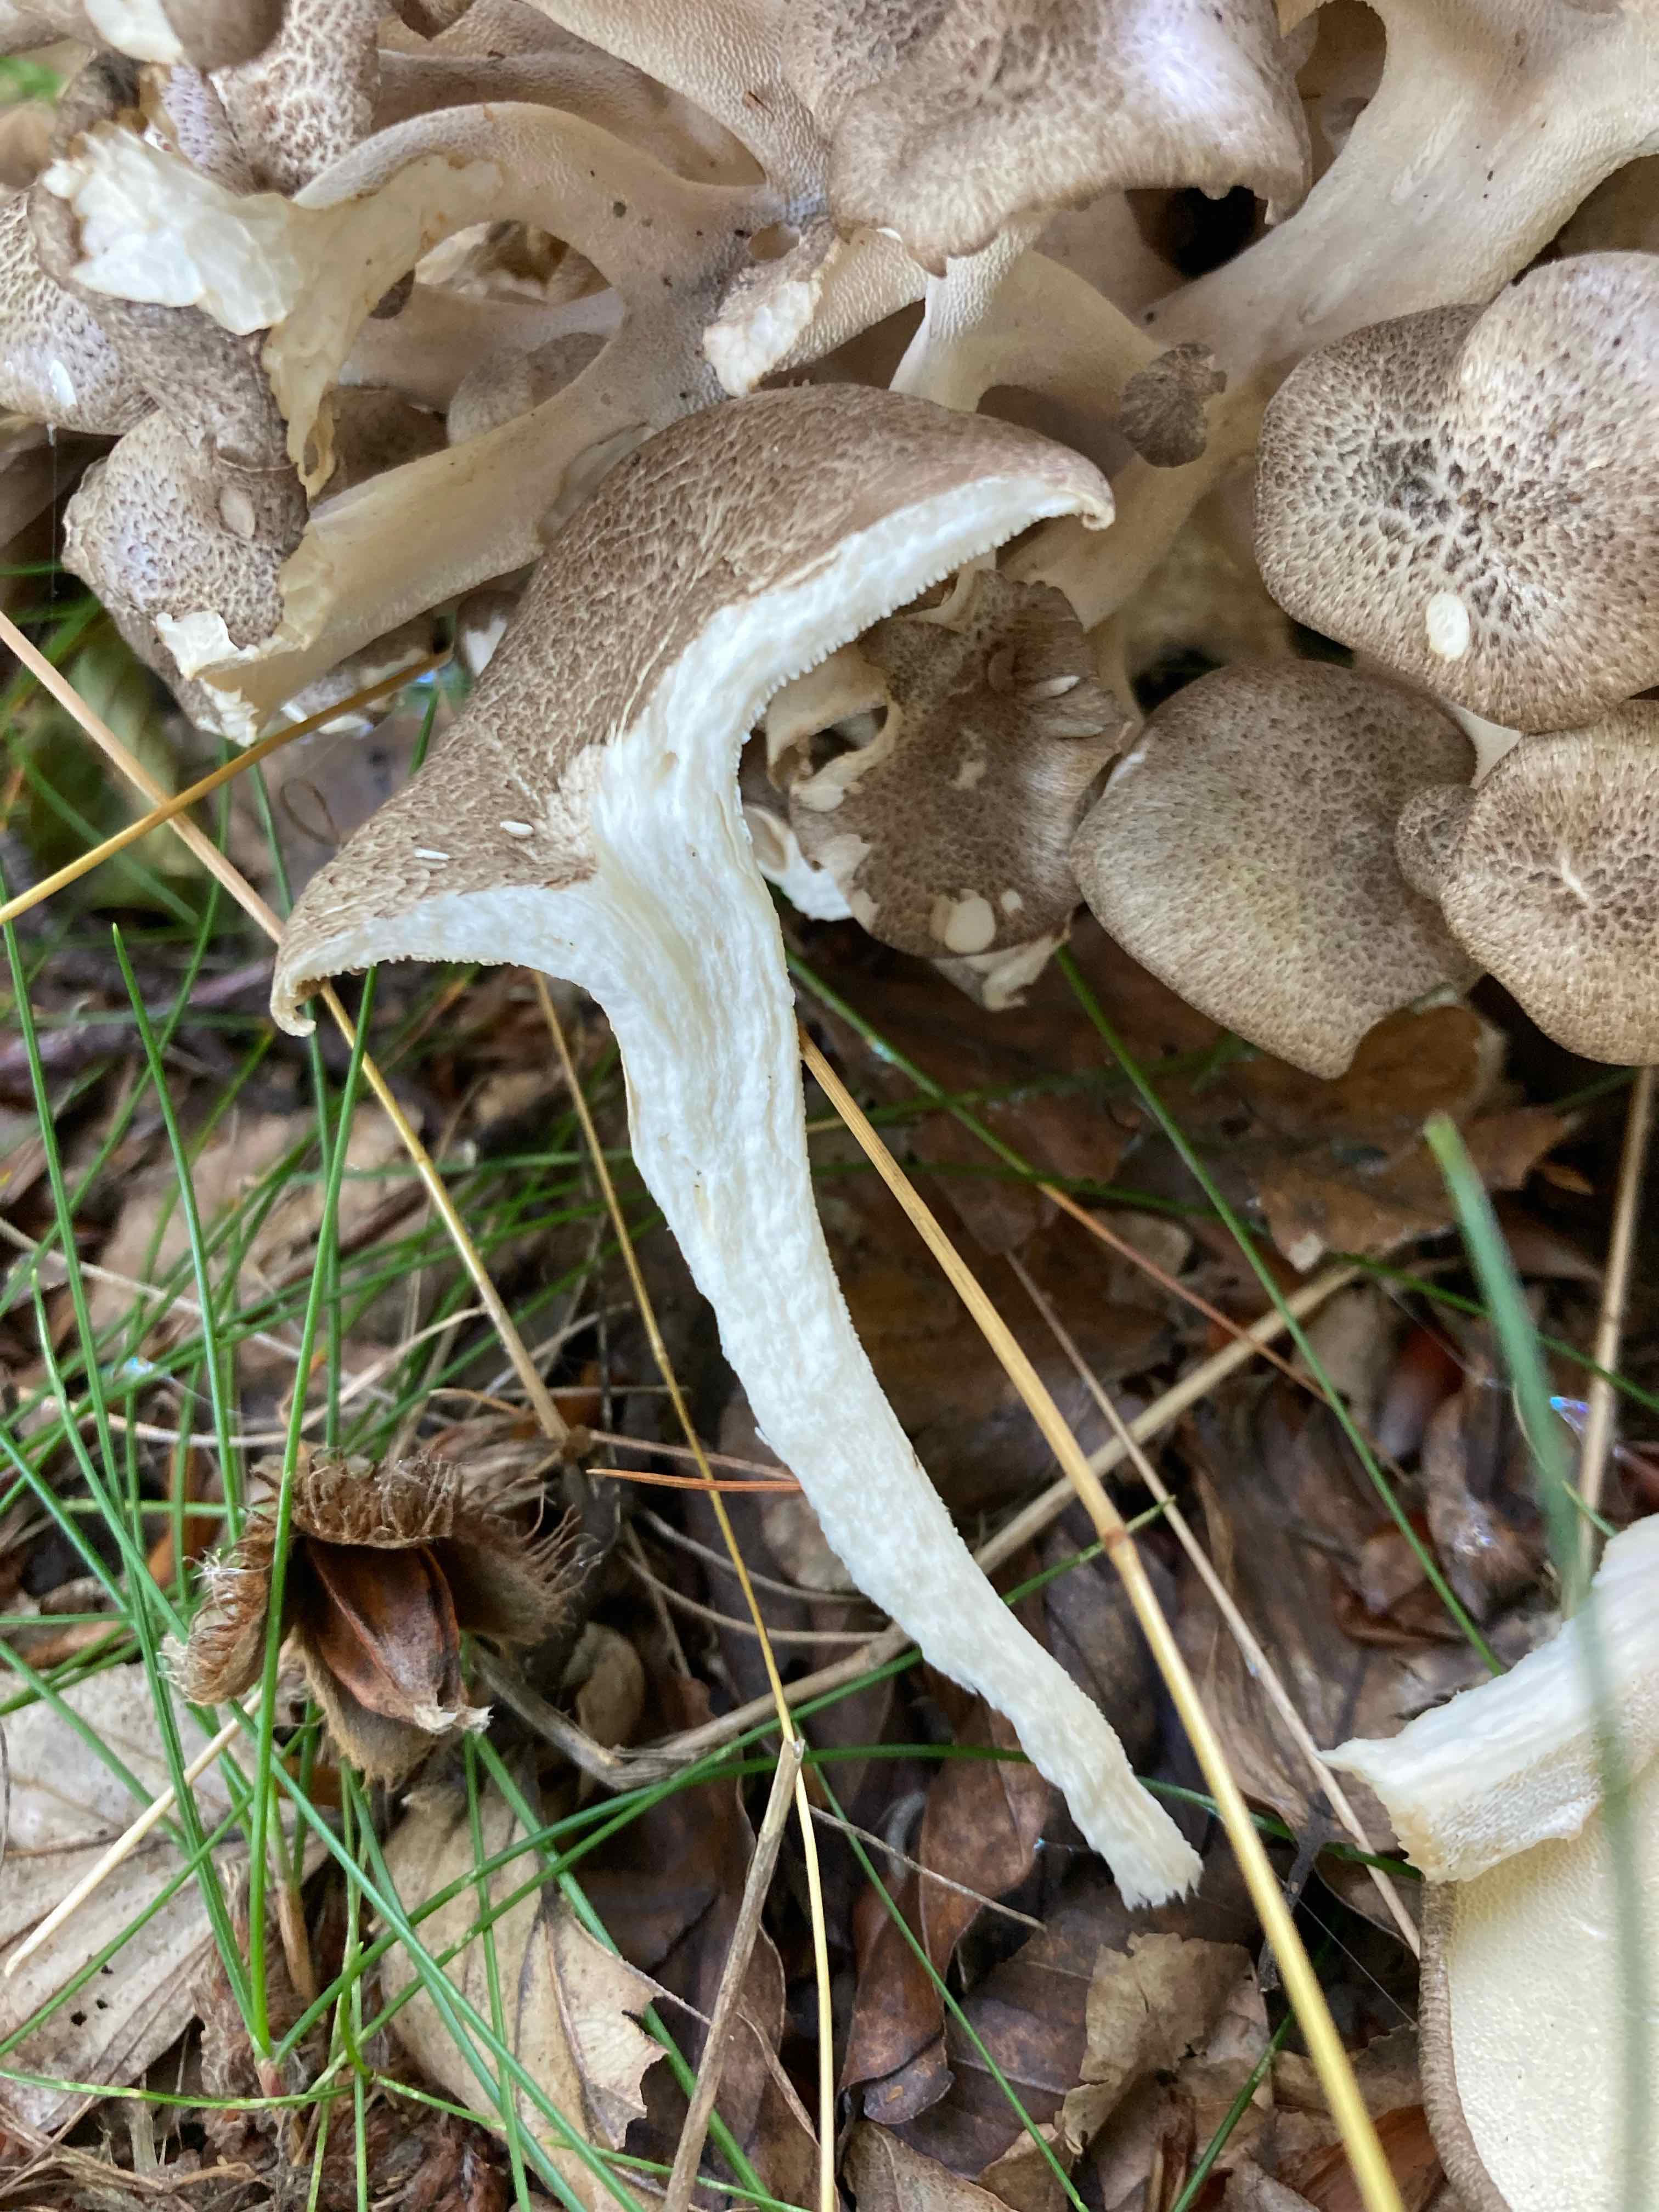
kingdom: Fungi
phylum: Basidiomycota
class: Agaricomycetes
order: Polyporales
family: Polyporaceae
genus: Polyporus
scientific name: Polyporus umbellatus
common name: skærmformet stilkporesvamp
